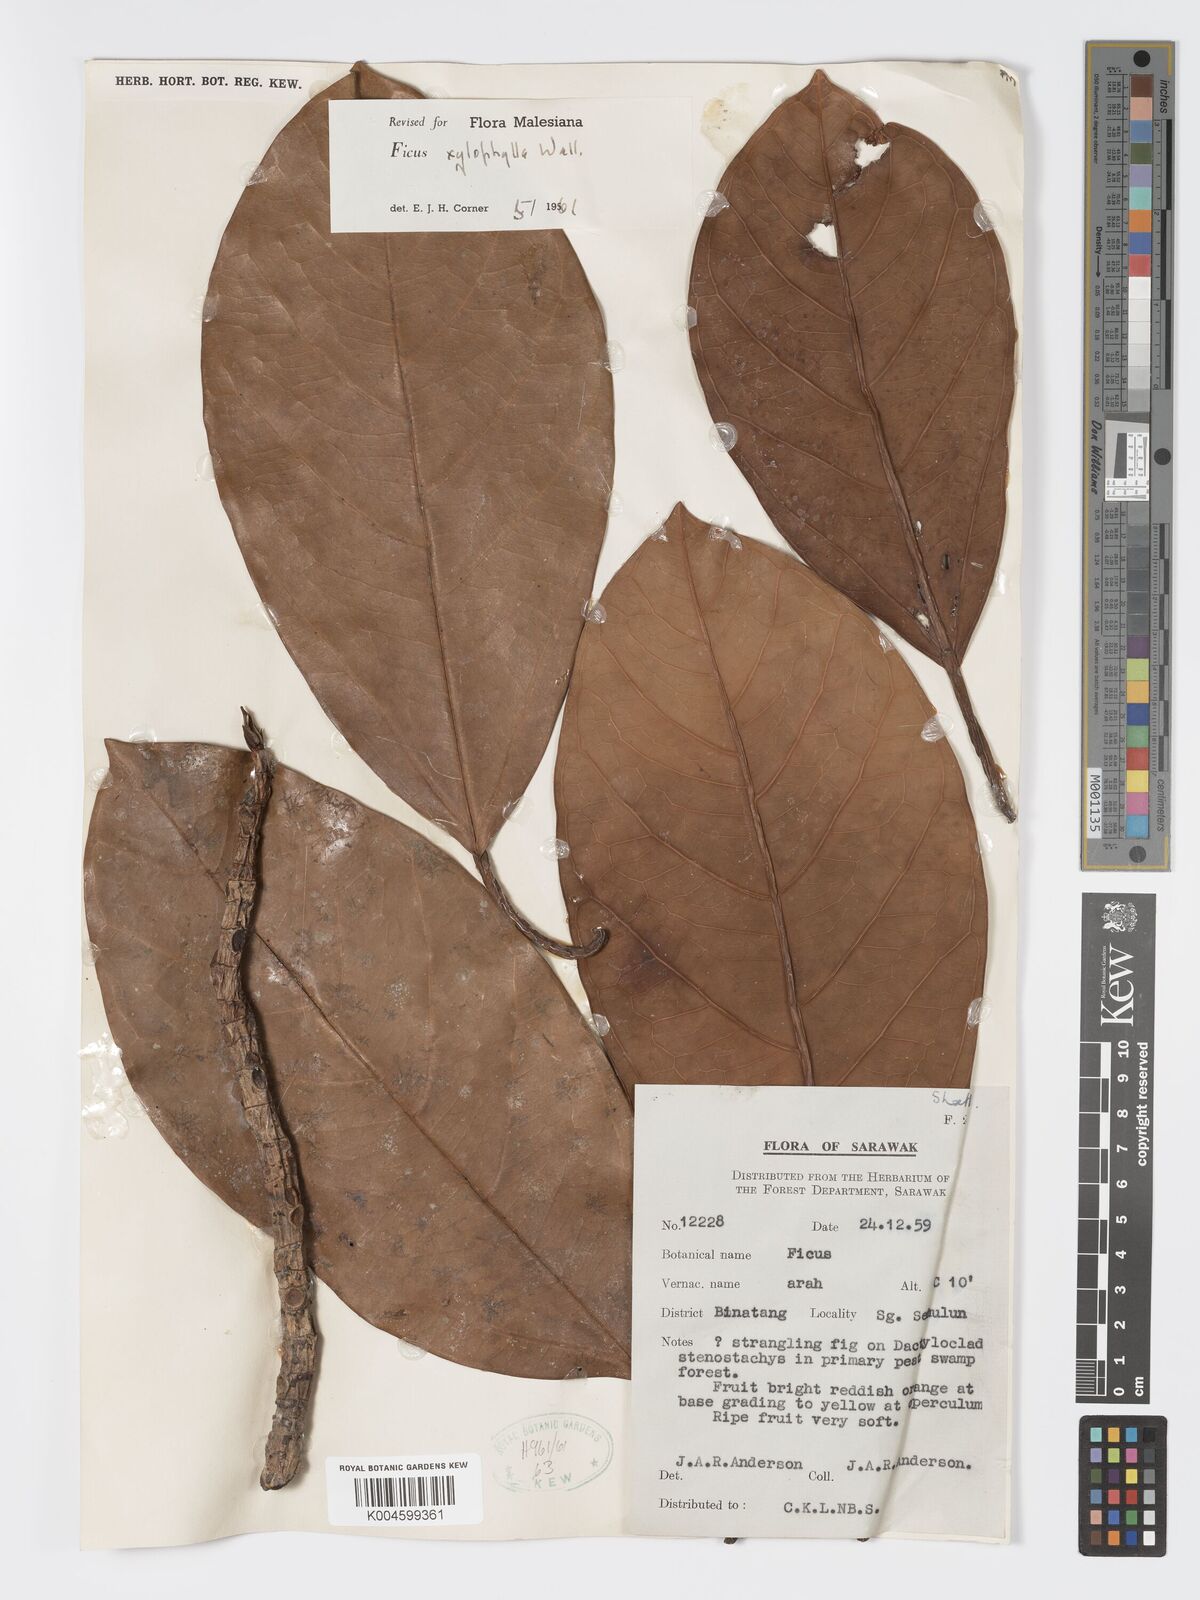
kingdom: Plantae
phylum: Tracheophyta
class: Magnoliopsida
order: Rosales
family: Moraceae
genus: Ficus
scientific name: Ficus xylophylla
